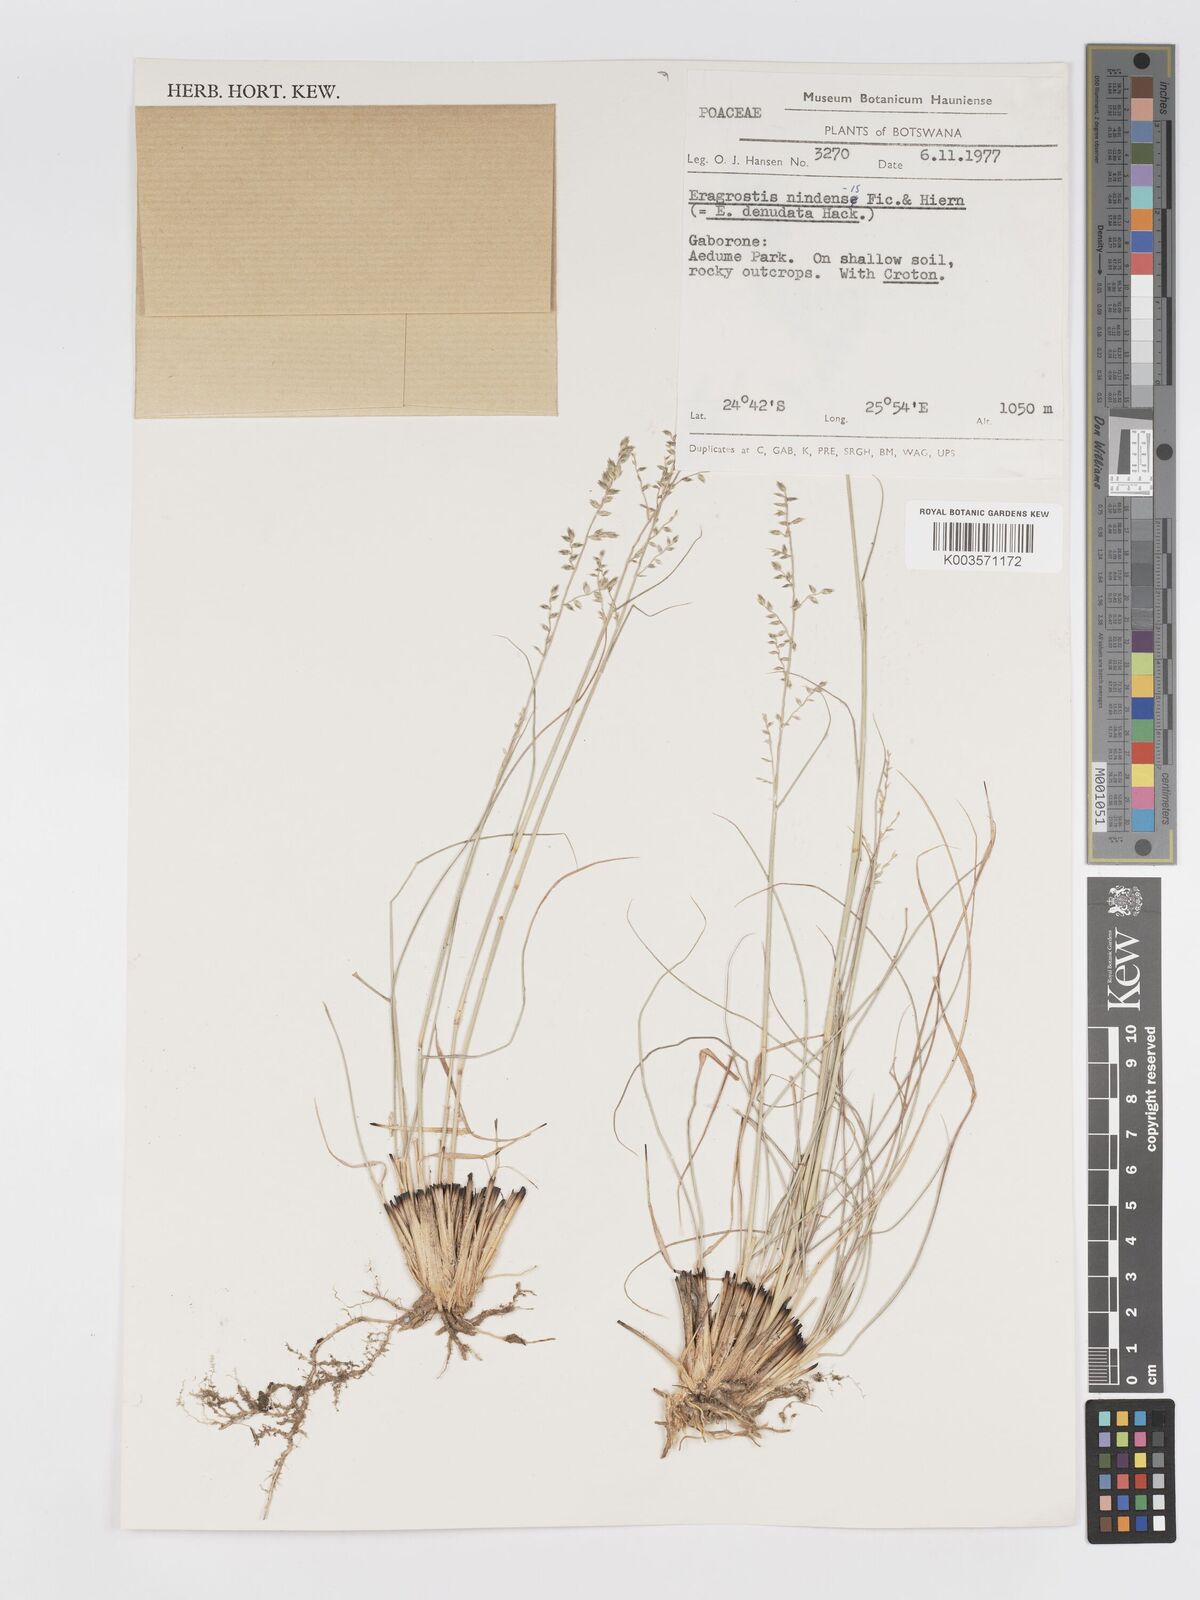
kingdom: Plantae
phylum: Tracheophyta
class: Liliopsida
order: Poales
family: Poaceae
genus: Eragrostis
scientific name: Eragrostis nindensis
